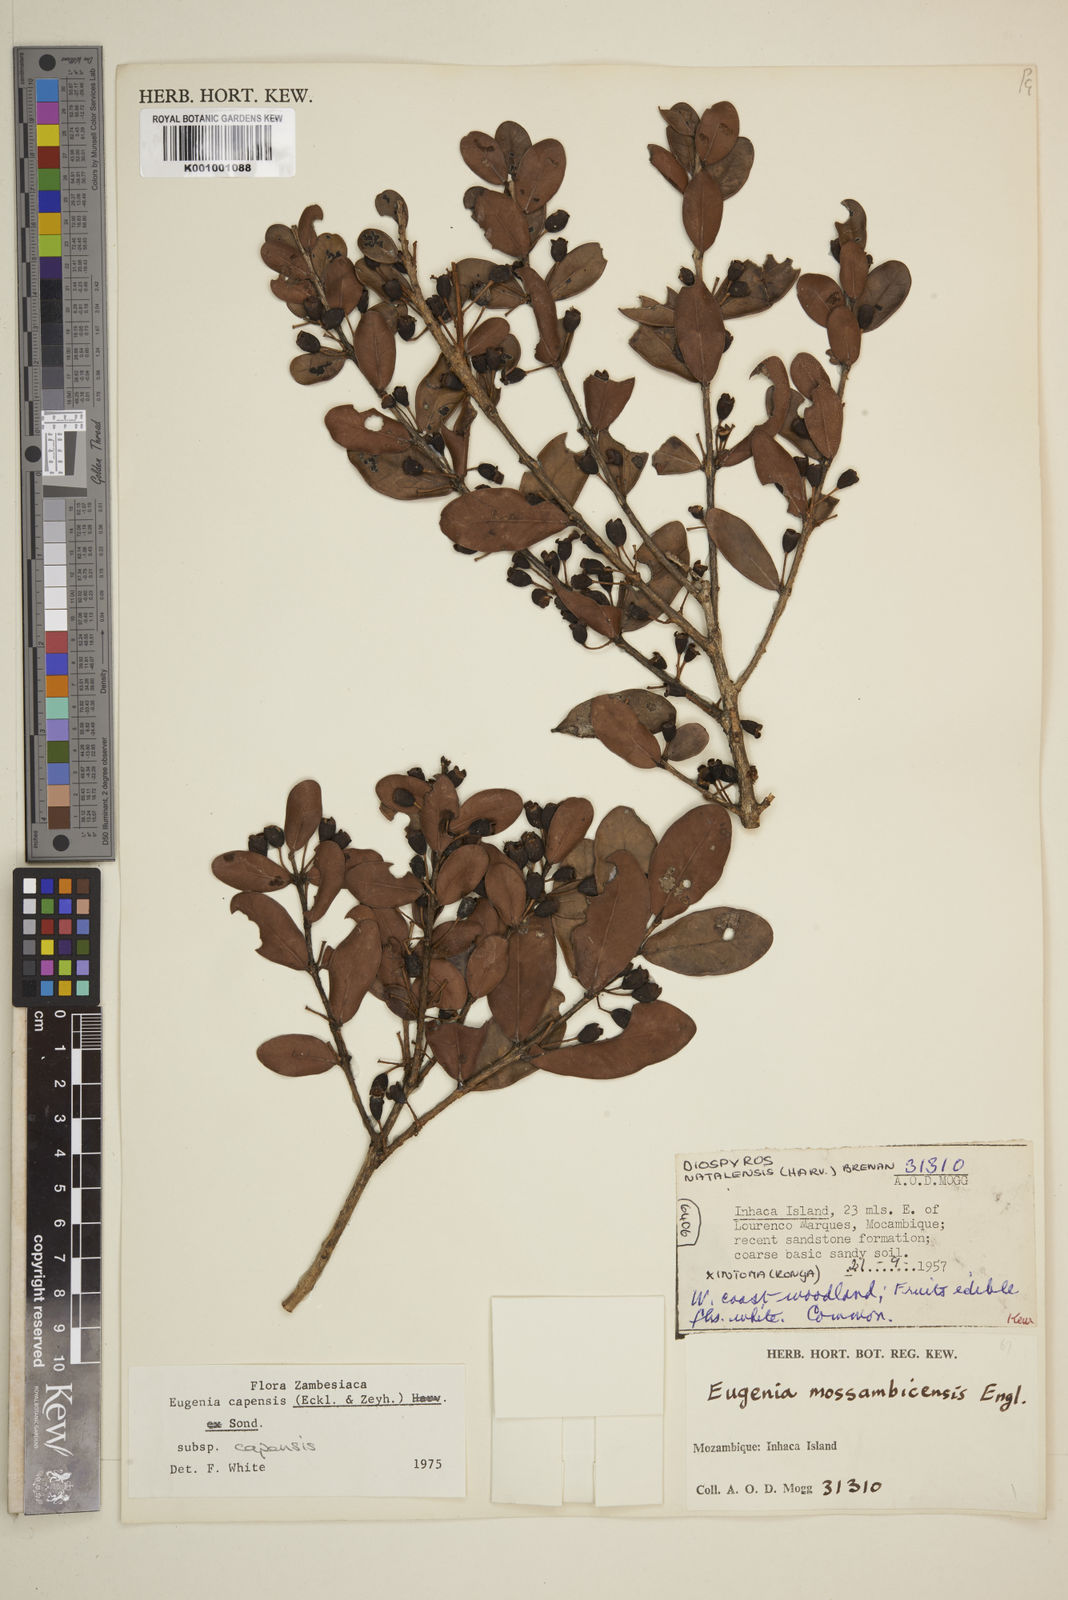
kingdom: Plantae
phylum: Tracheophyta
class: Magnoliopsida
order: Myrtales
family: Myrtaceae
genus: Eugenia
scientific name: Eugenia capensis
